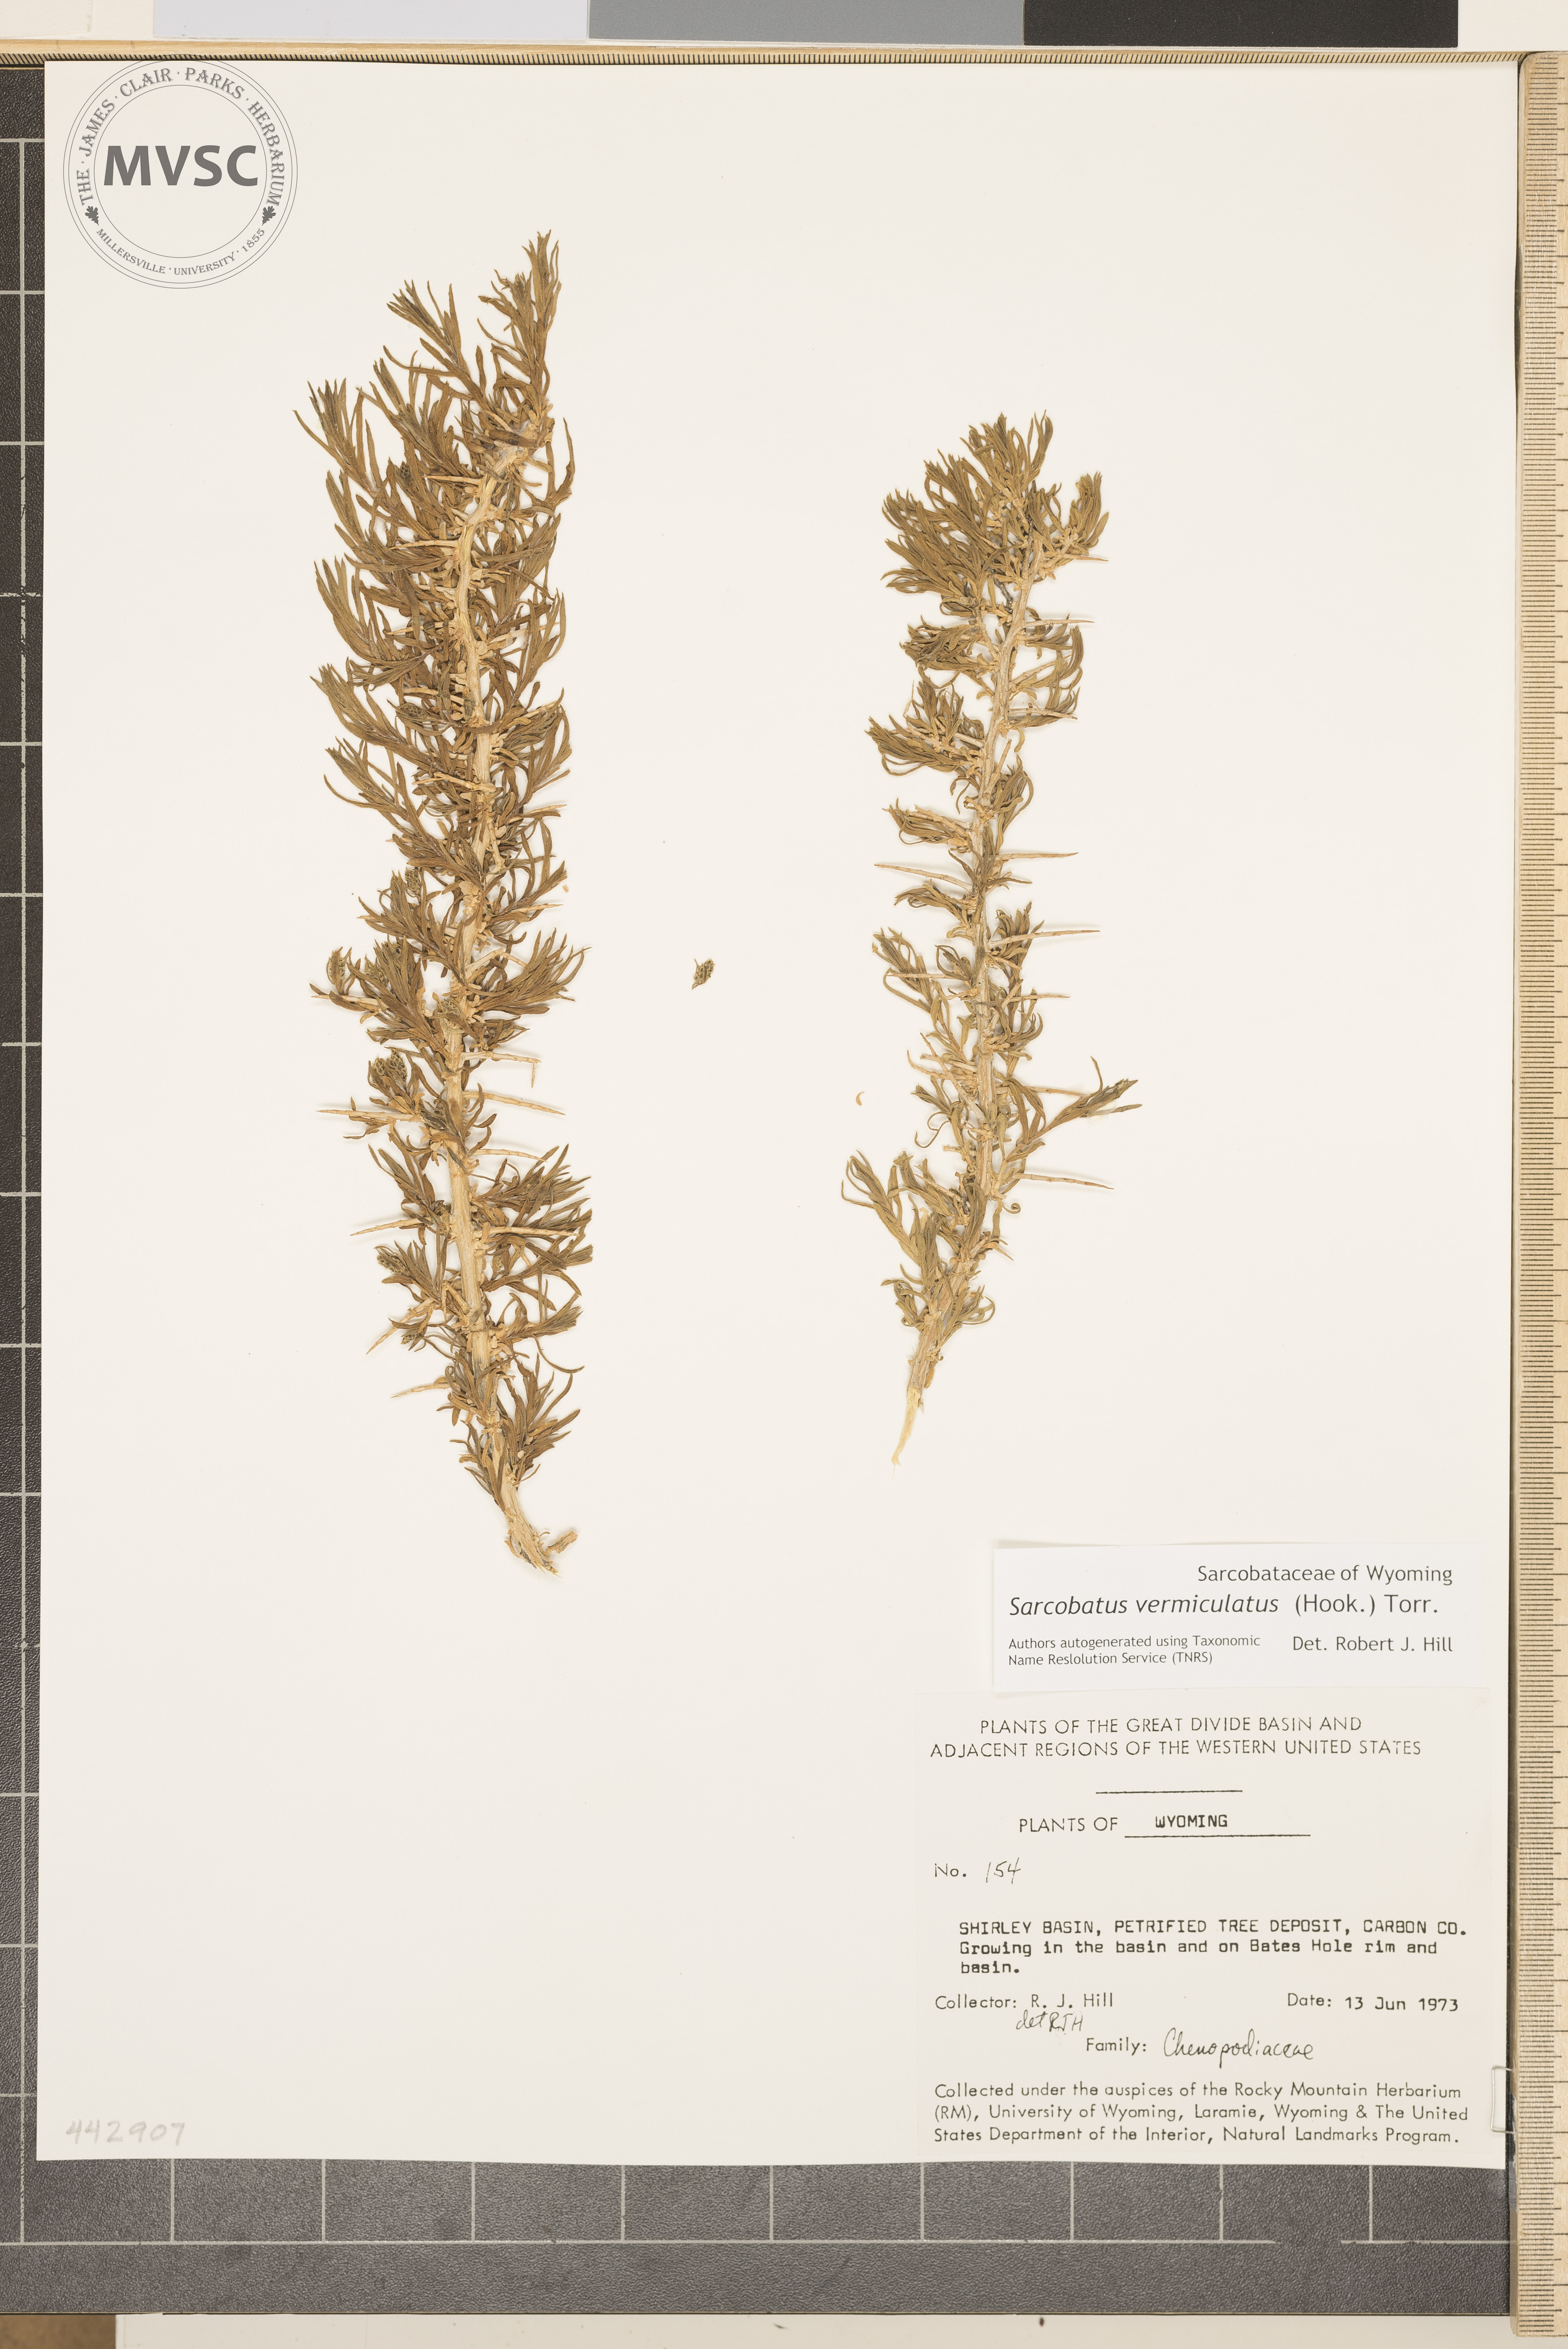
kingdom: Plantae
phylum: Tracheophyta
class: Magnoliopsida
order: Caryophyllales
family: Sarcobataceae
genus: Sarcobatus
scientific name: Sarcobatus vermiculatus
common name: Greasewood
